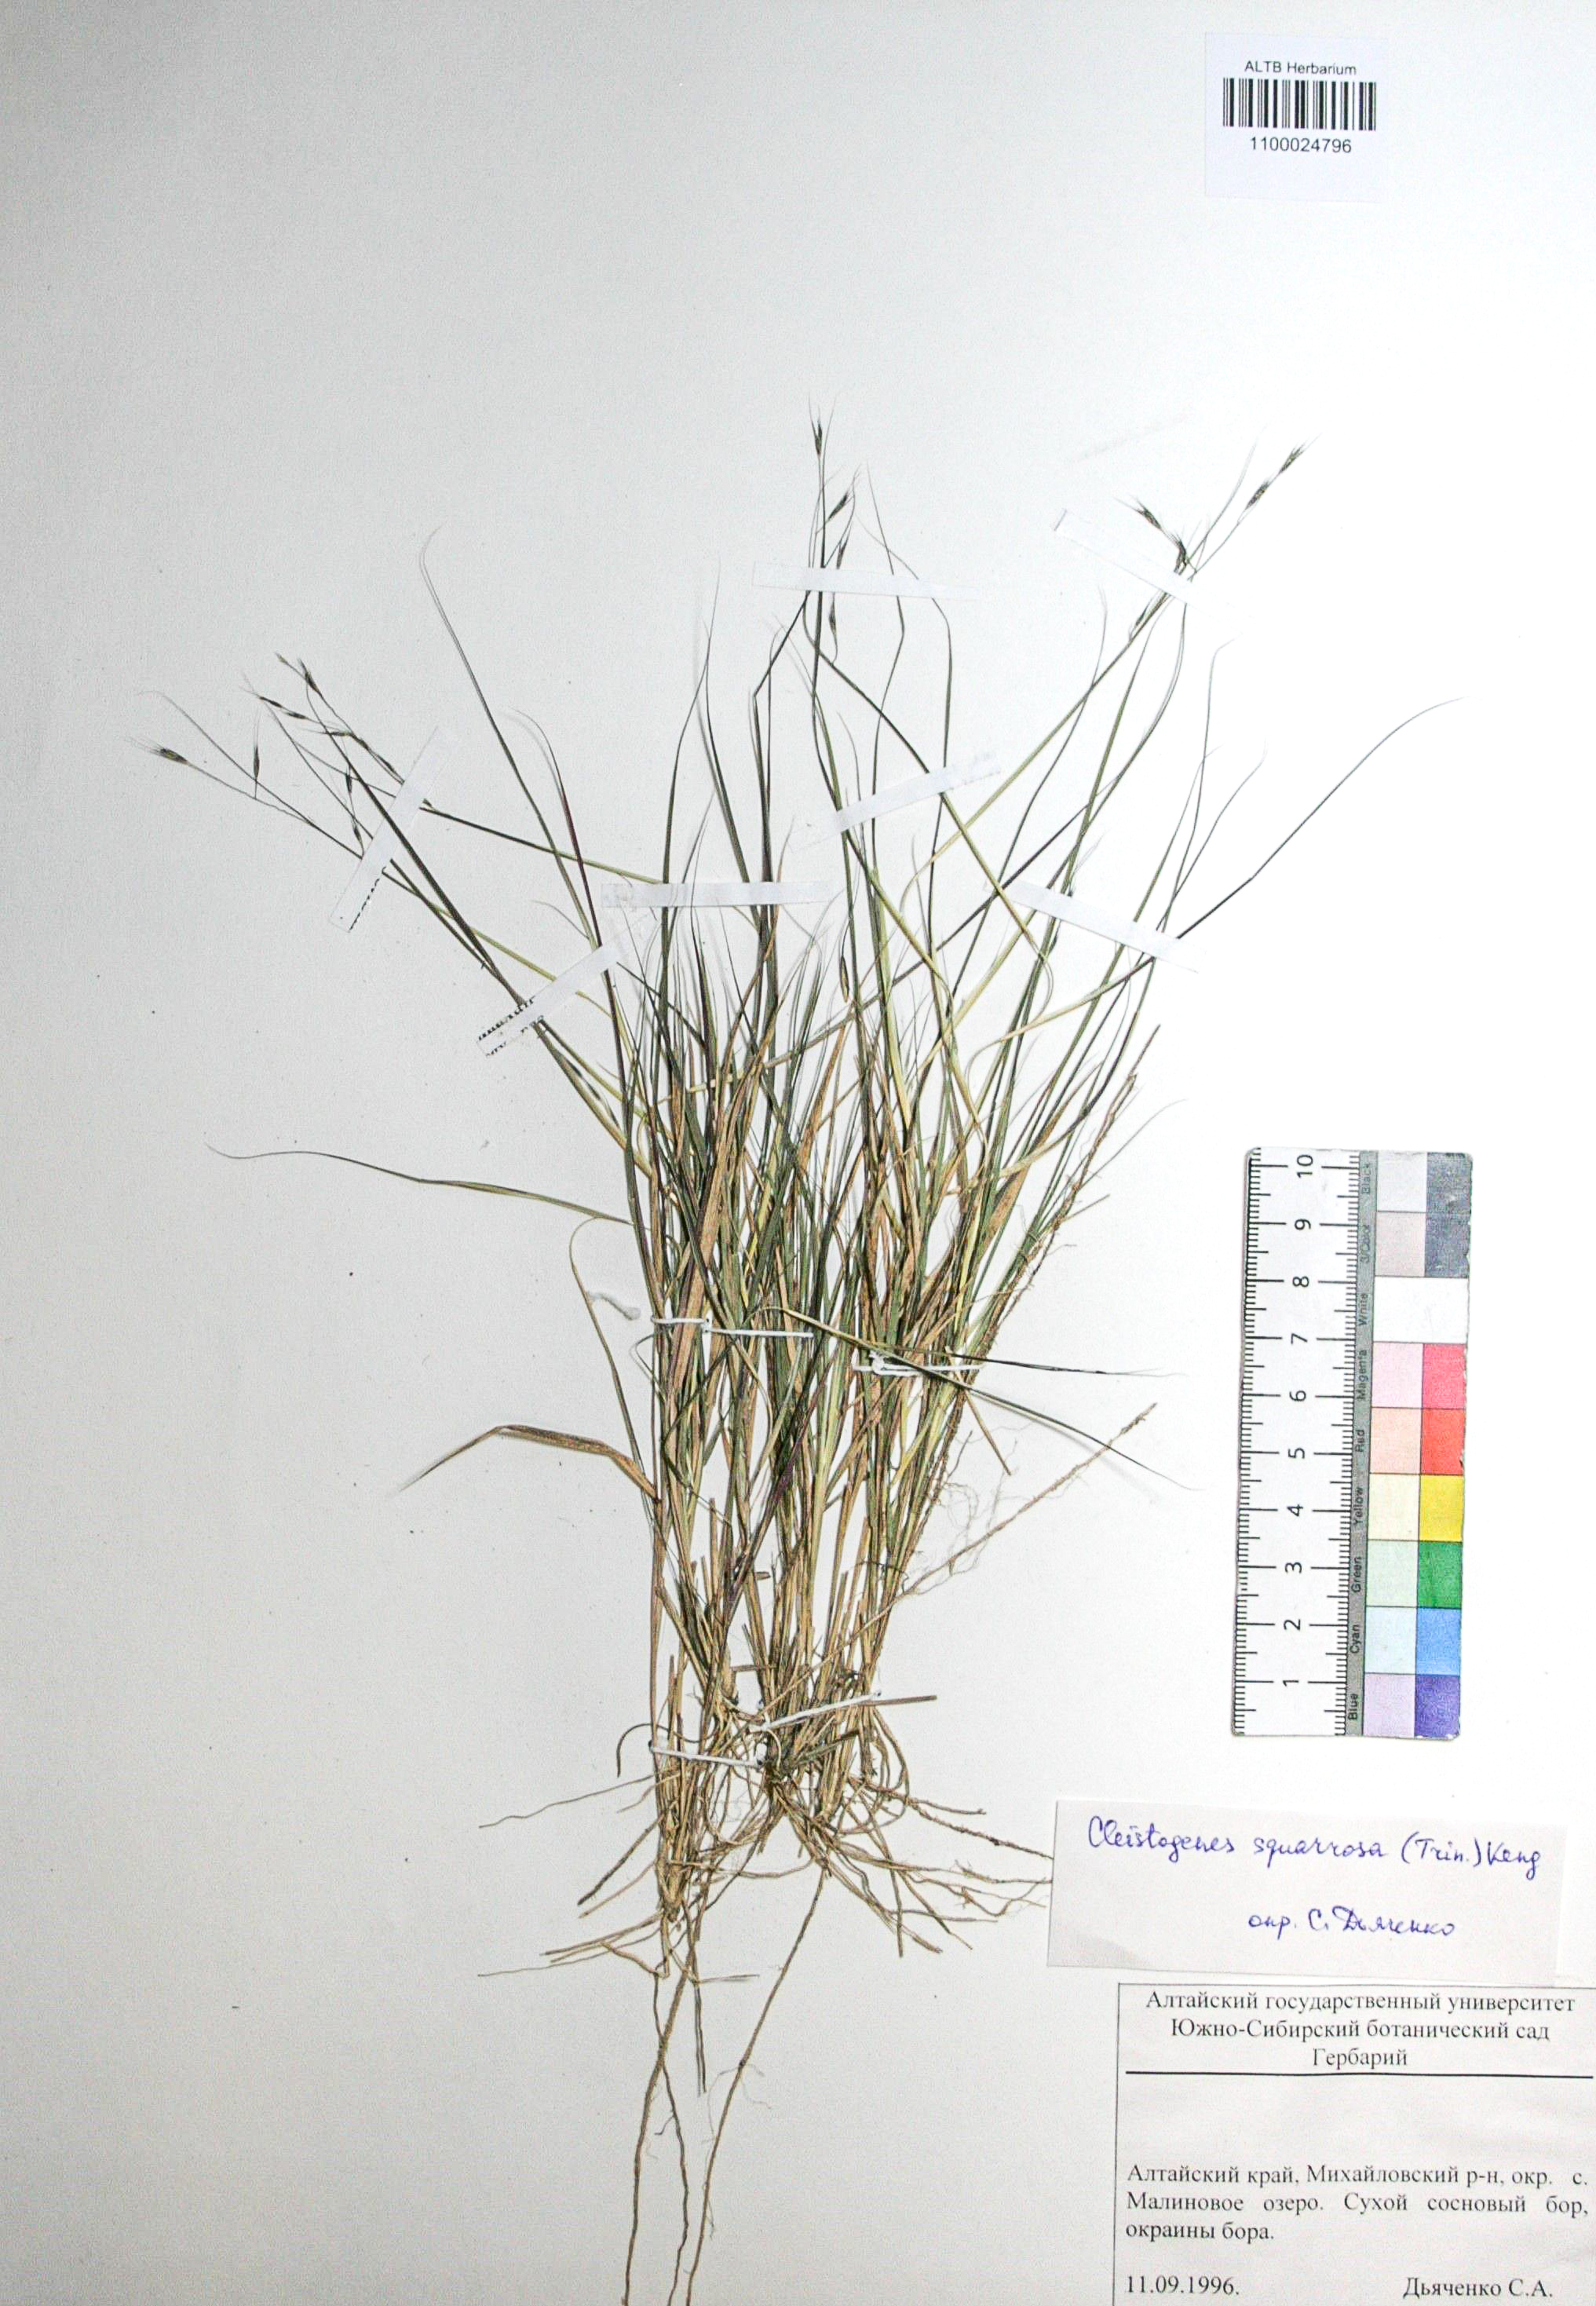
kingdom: Plantae
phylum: Tracheophyta
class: Liliopsida
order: Poales
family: Poaceae
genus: Cleistogenes
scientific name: Cleistogenes squarrosa
